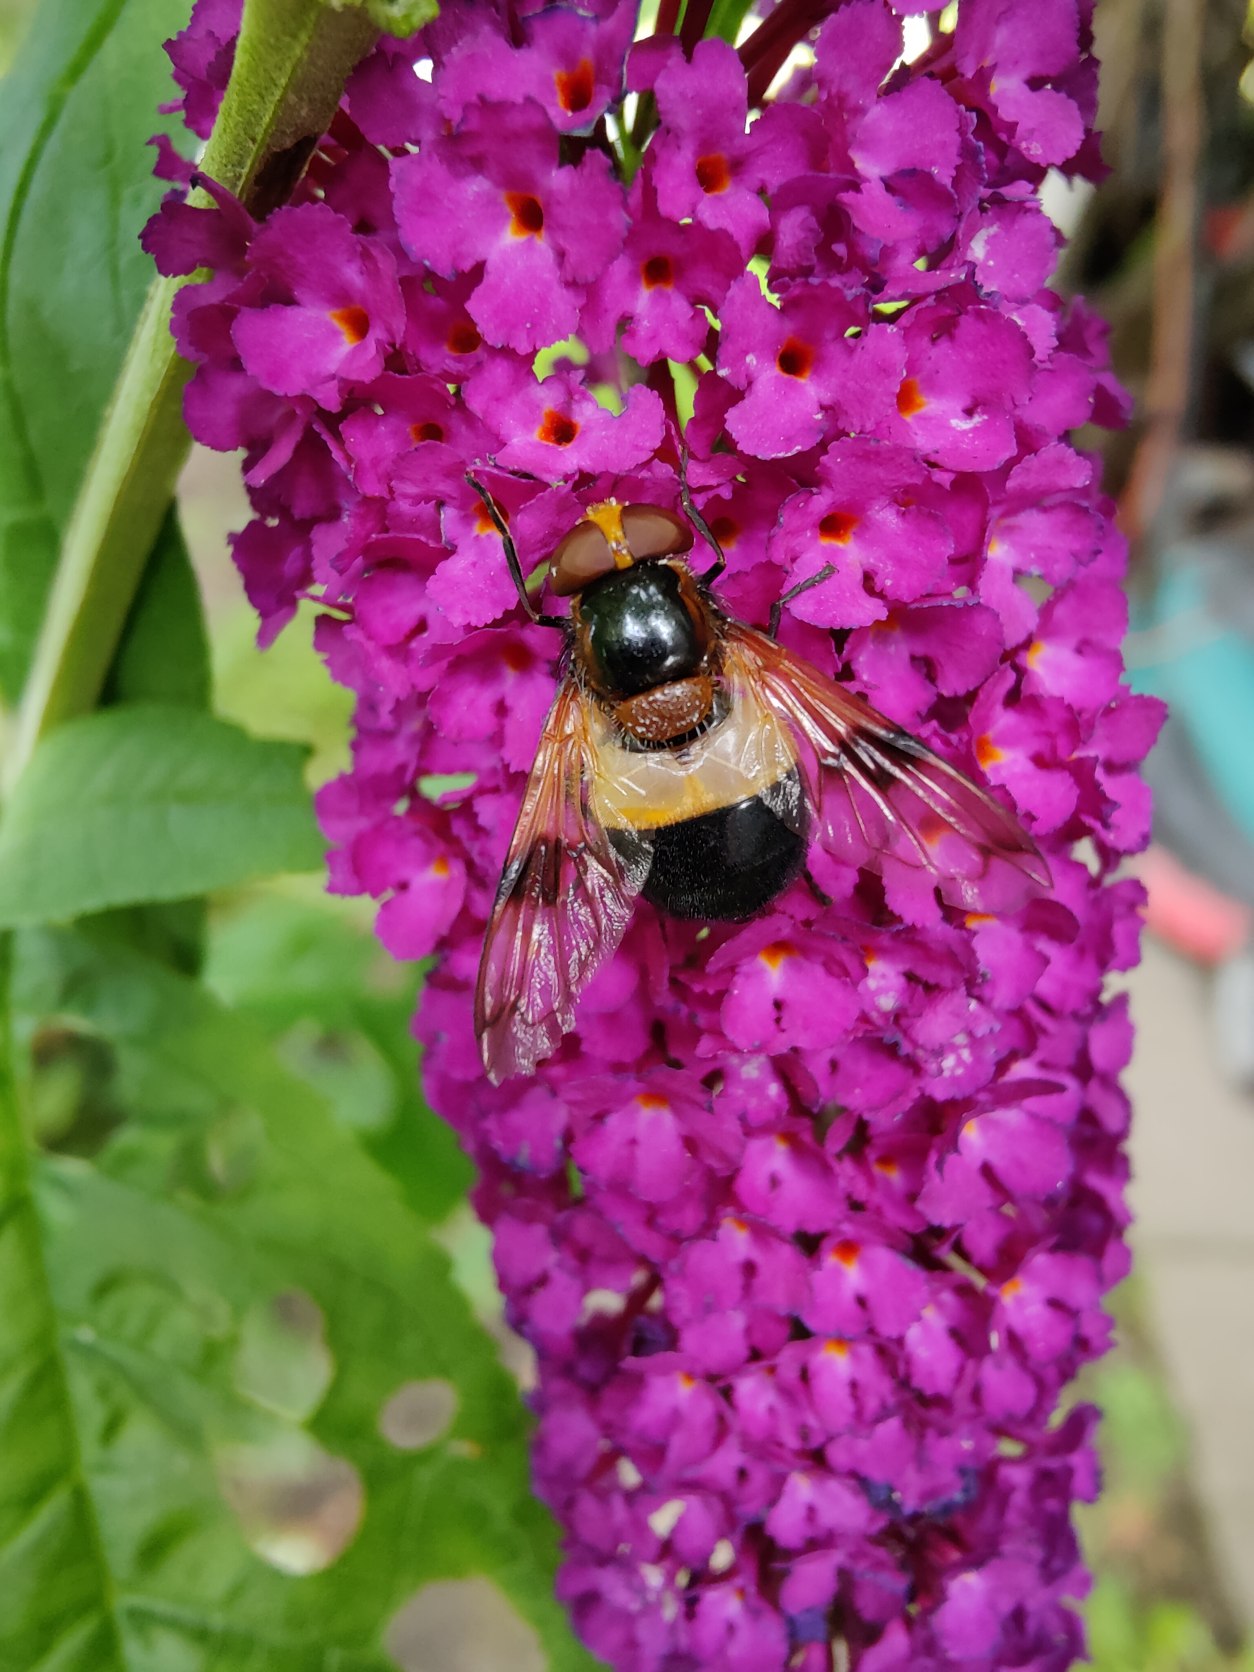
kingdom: Animalia
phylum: Arthropoda
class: Insecta
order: Diptera
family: Syrphidae
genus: Volucella
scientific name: Volucella pellucens
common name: Hvidbåndet humlesvirreflue
